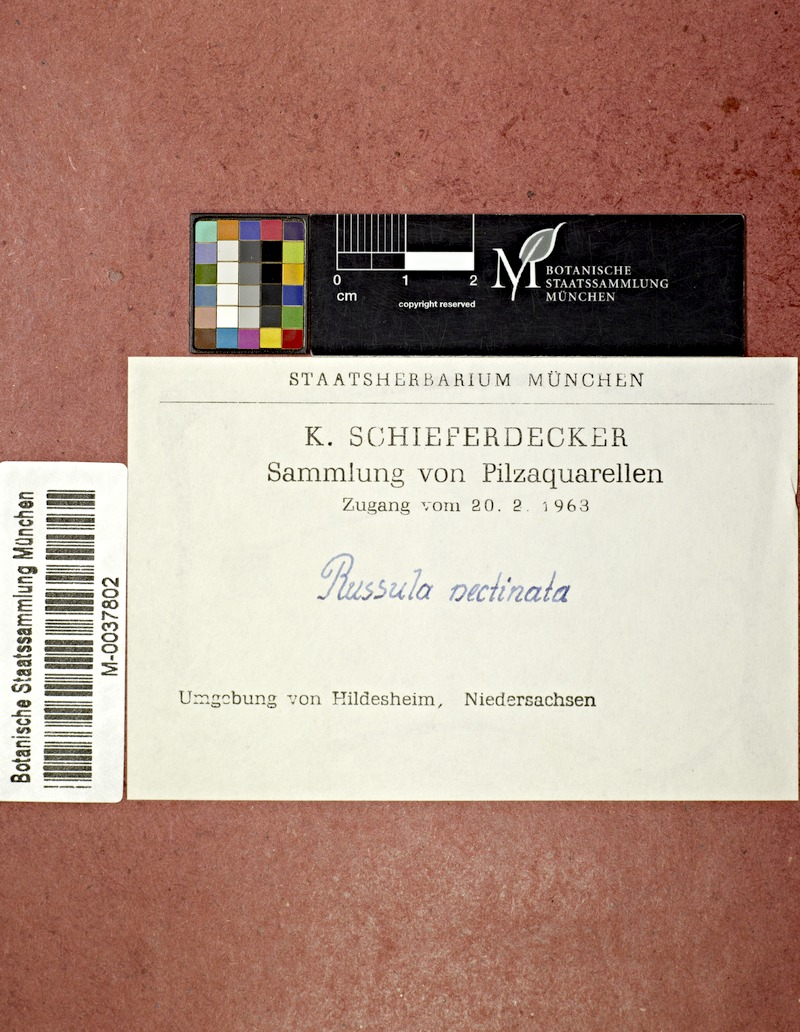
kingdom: Fungi
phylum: Basidiomycota
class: Agaricomycetes
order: Russulales
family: Russulaceae
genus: Russula
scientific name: Russula pectinata
